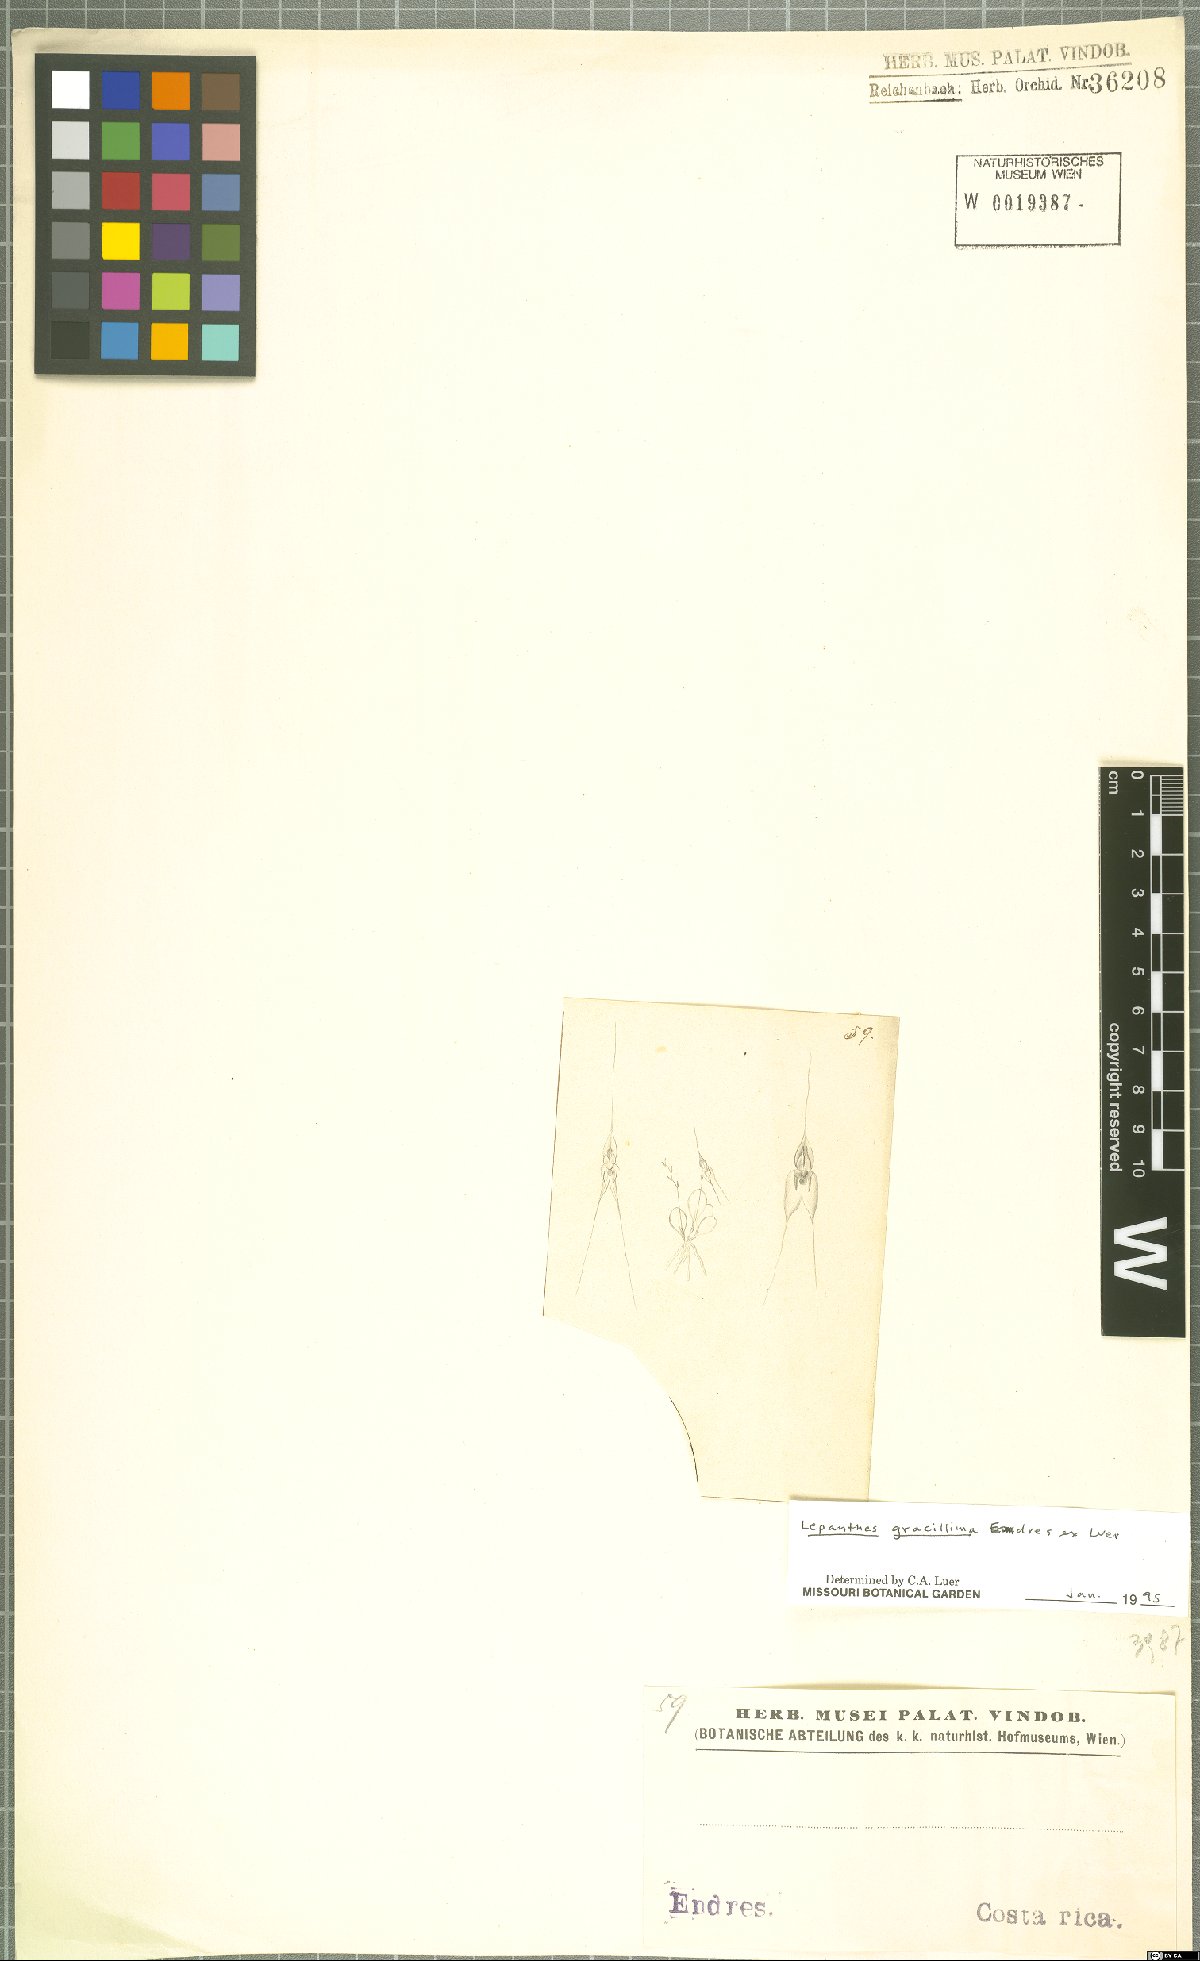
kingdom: Plantae
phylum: Tracheophyta
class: Liliopsida
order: Asparagales
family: Orchidaceae
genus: Lepanthes
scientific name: Lepanthes gracillima
